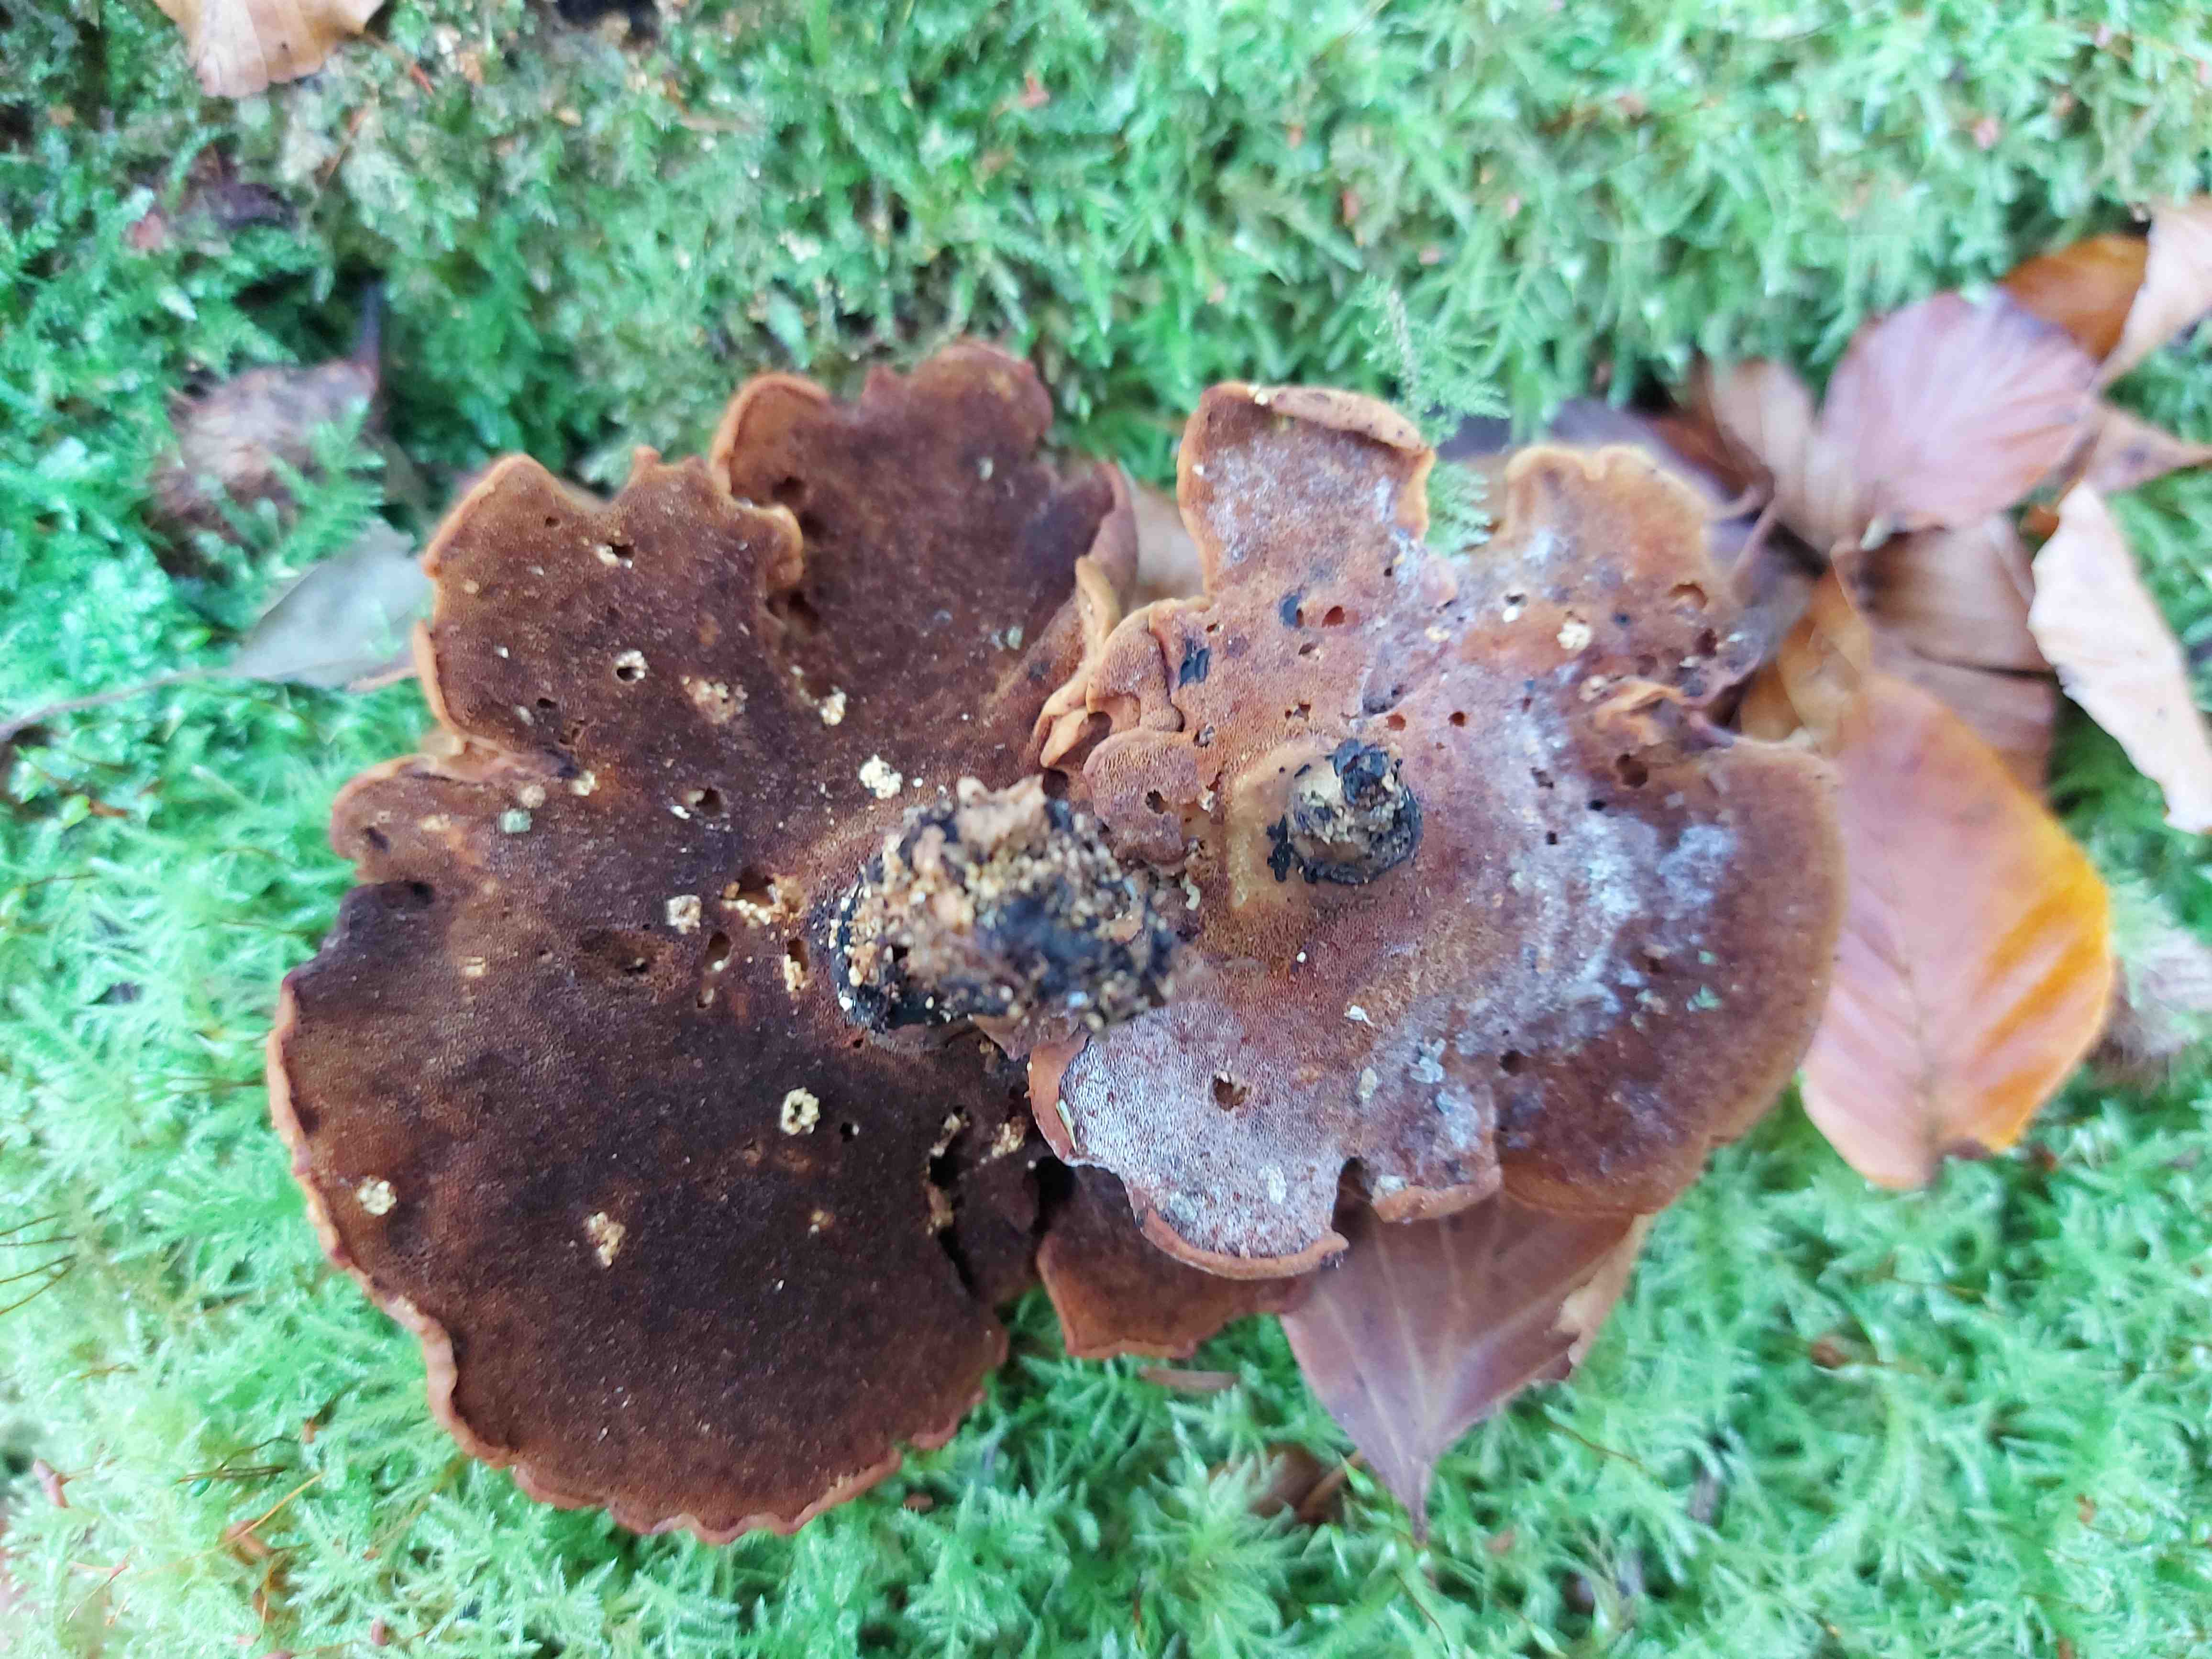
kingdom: Fungi
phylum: Basidiomycota
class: Agaricomycetes
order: Polyporales
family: Polyporaceae
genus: Cerioporus
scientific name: Cerioporus varius
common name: foranderlig stilkporesvamp
